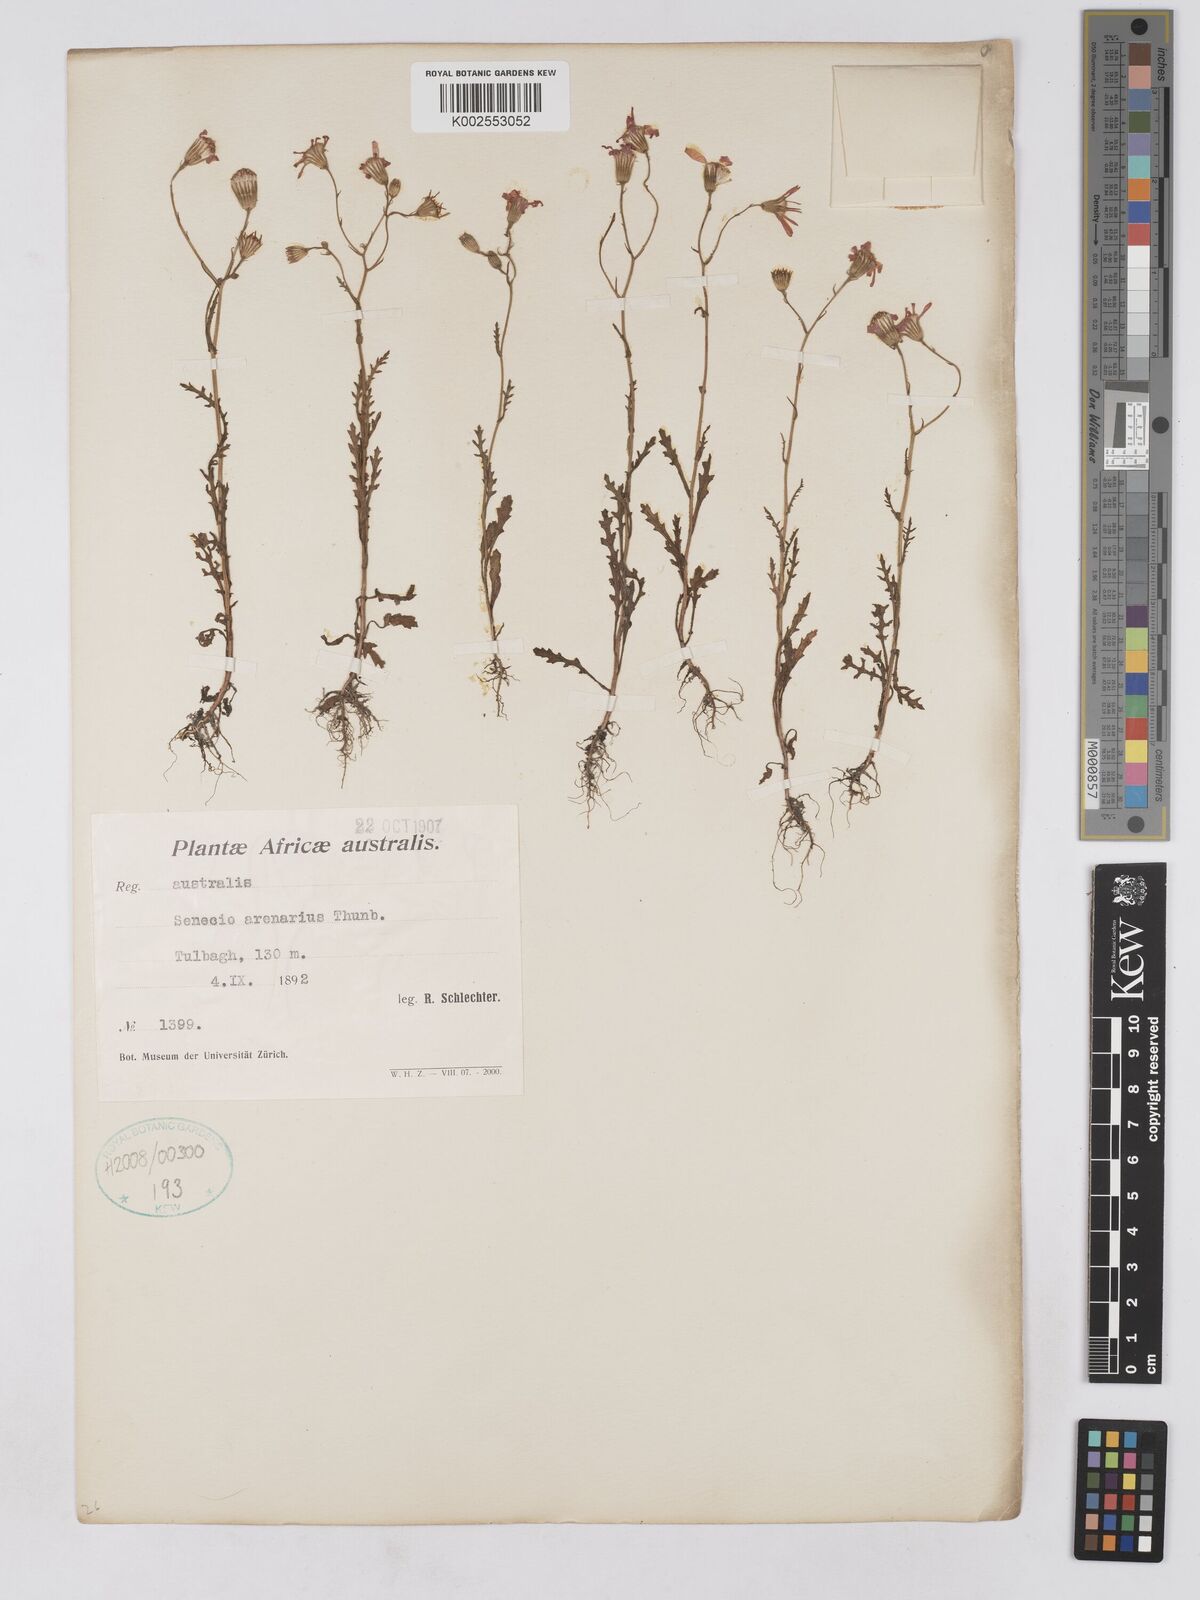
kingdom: Plantae
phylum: Tracheophyta
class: Magnoliopsida
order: Asterales
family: Asteraceae
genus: Senecio
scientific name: Senecio arenarius
